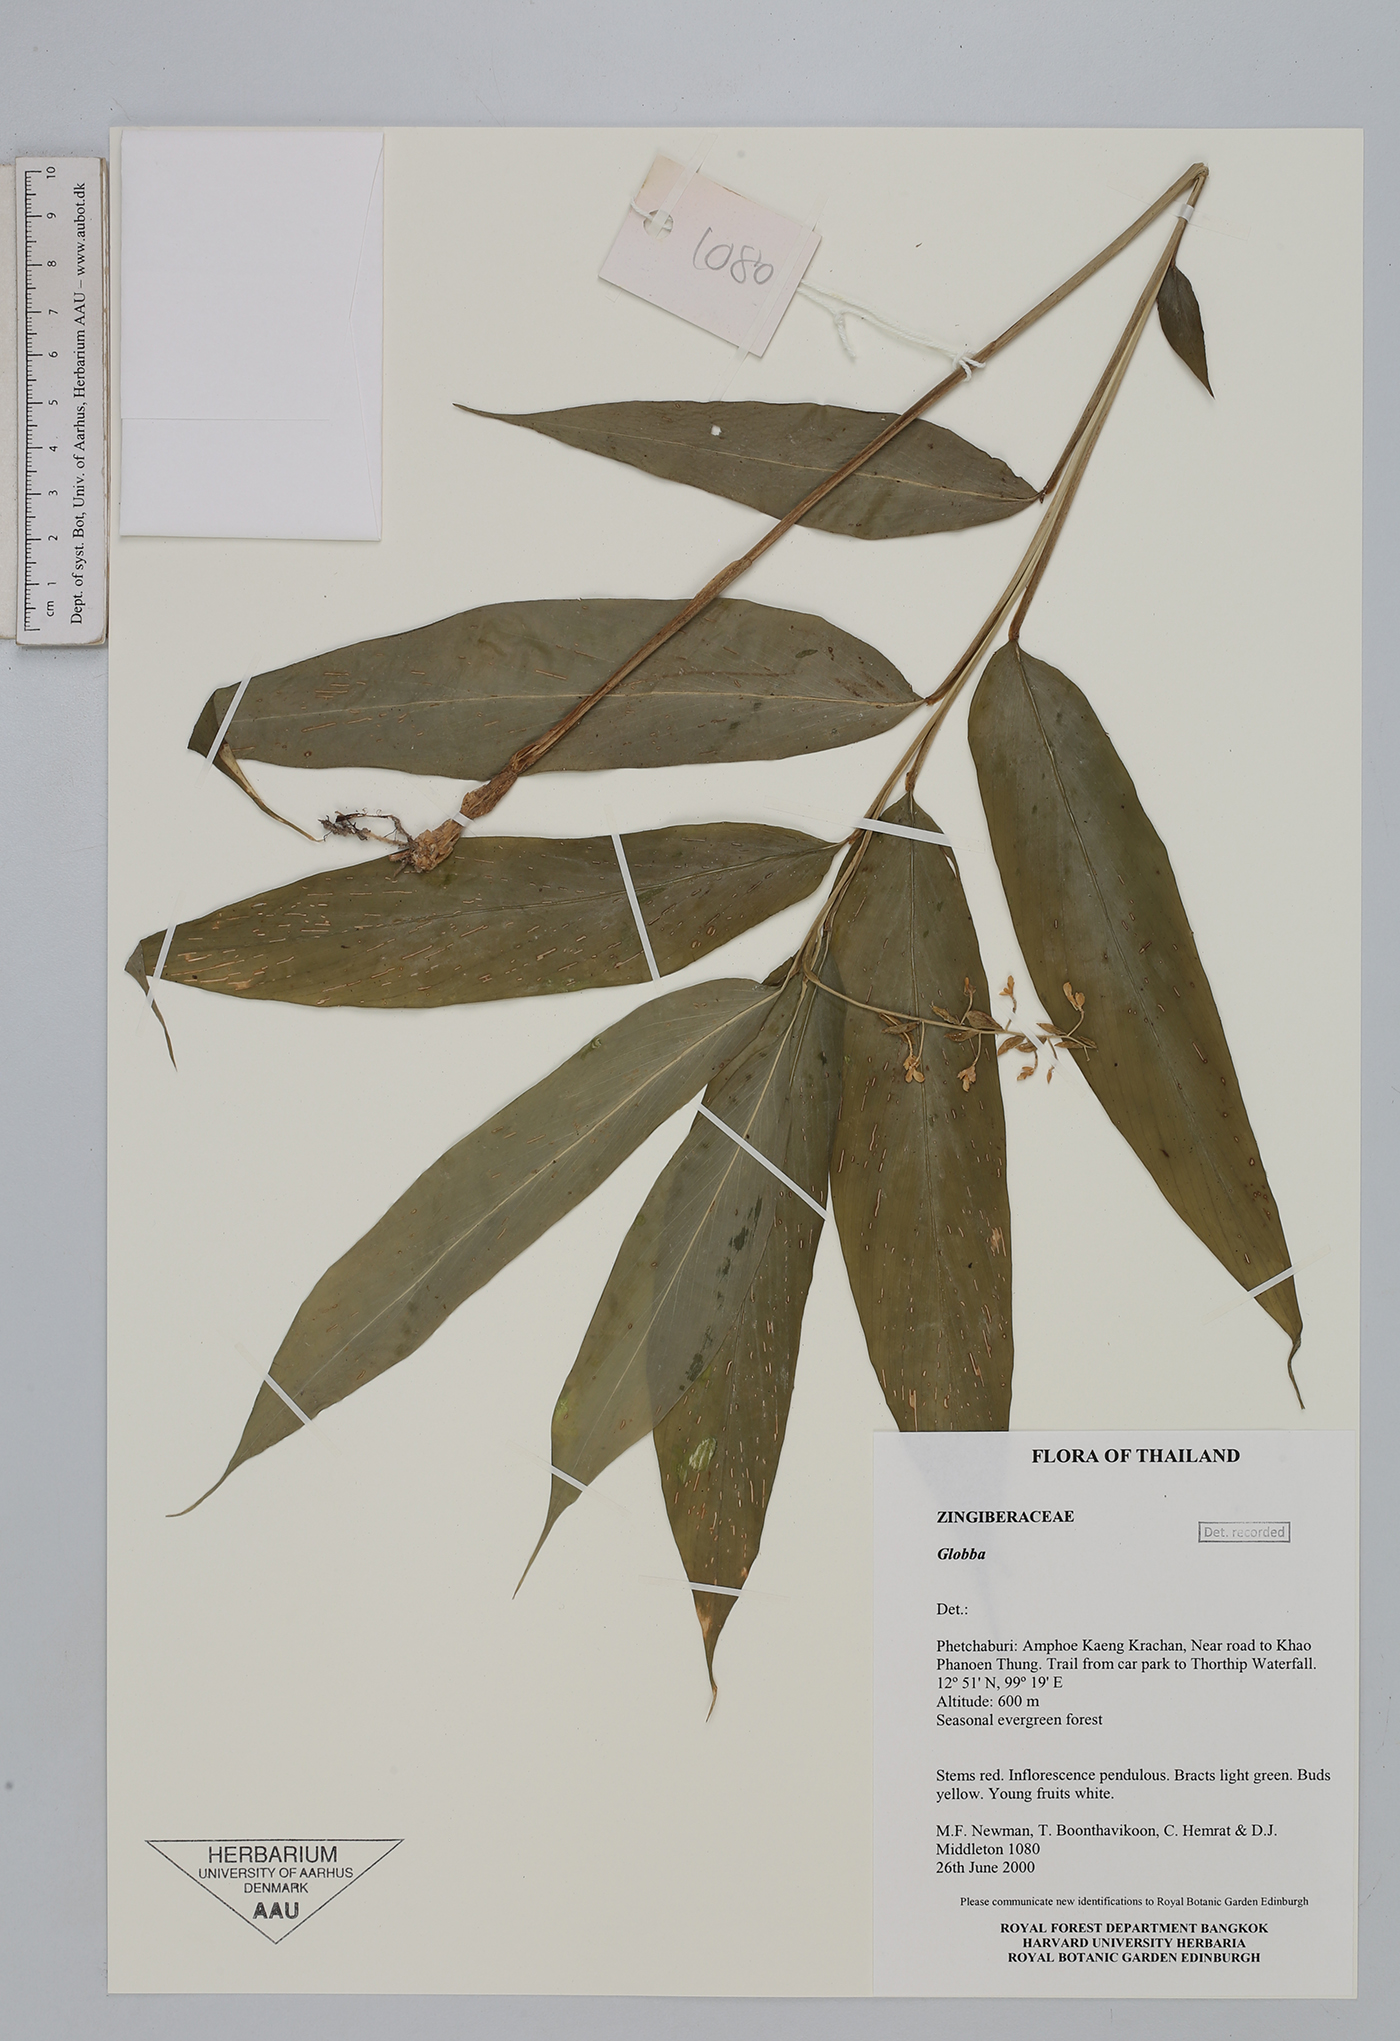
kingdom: Plantae
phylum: Tracheophyta
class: Liliopsida
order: Zingiberales
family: Zingiberaceae
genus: Globba
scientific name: Globba obscura
